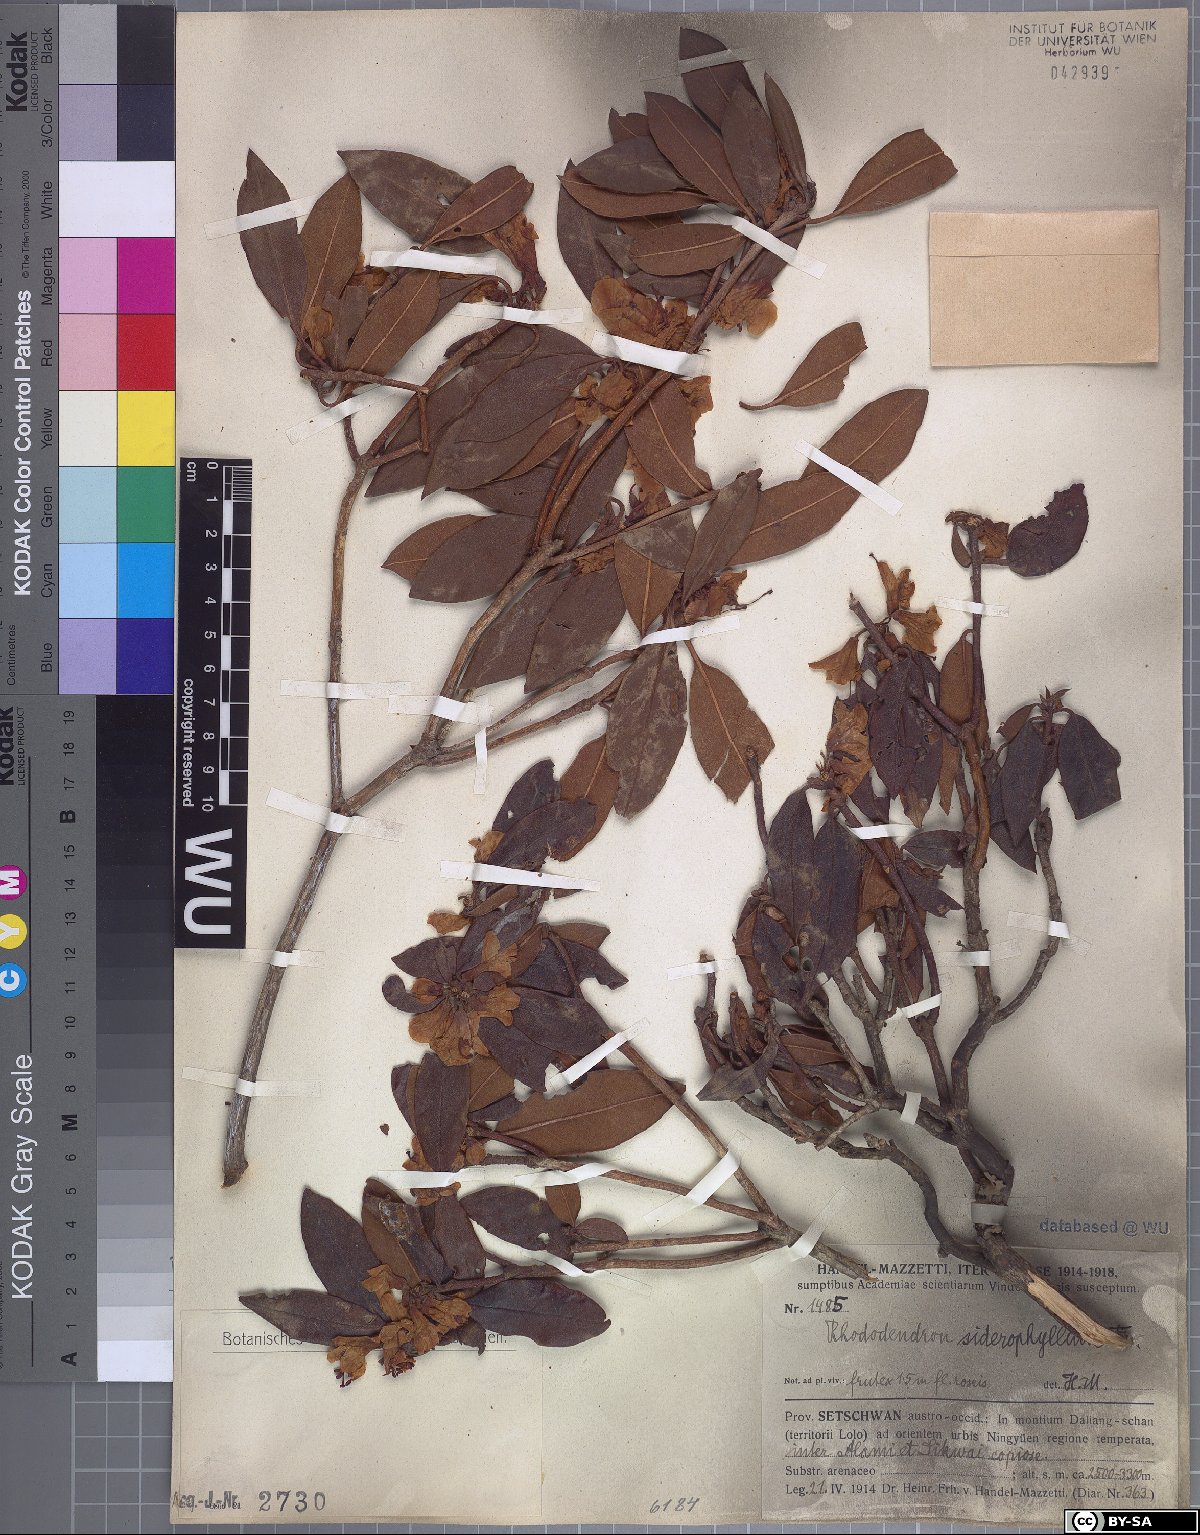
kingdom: Plantae
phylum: Tracheophyta
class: Magnoliopsida
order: Ericales
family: Ericaceae
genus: Rhododendron
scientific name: Rhododendron siderophyllum
